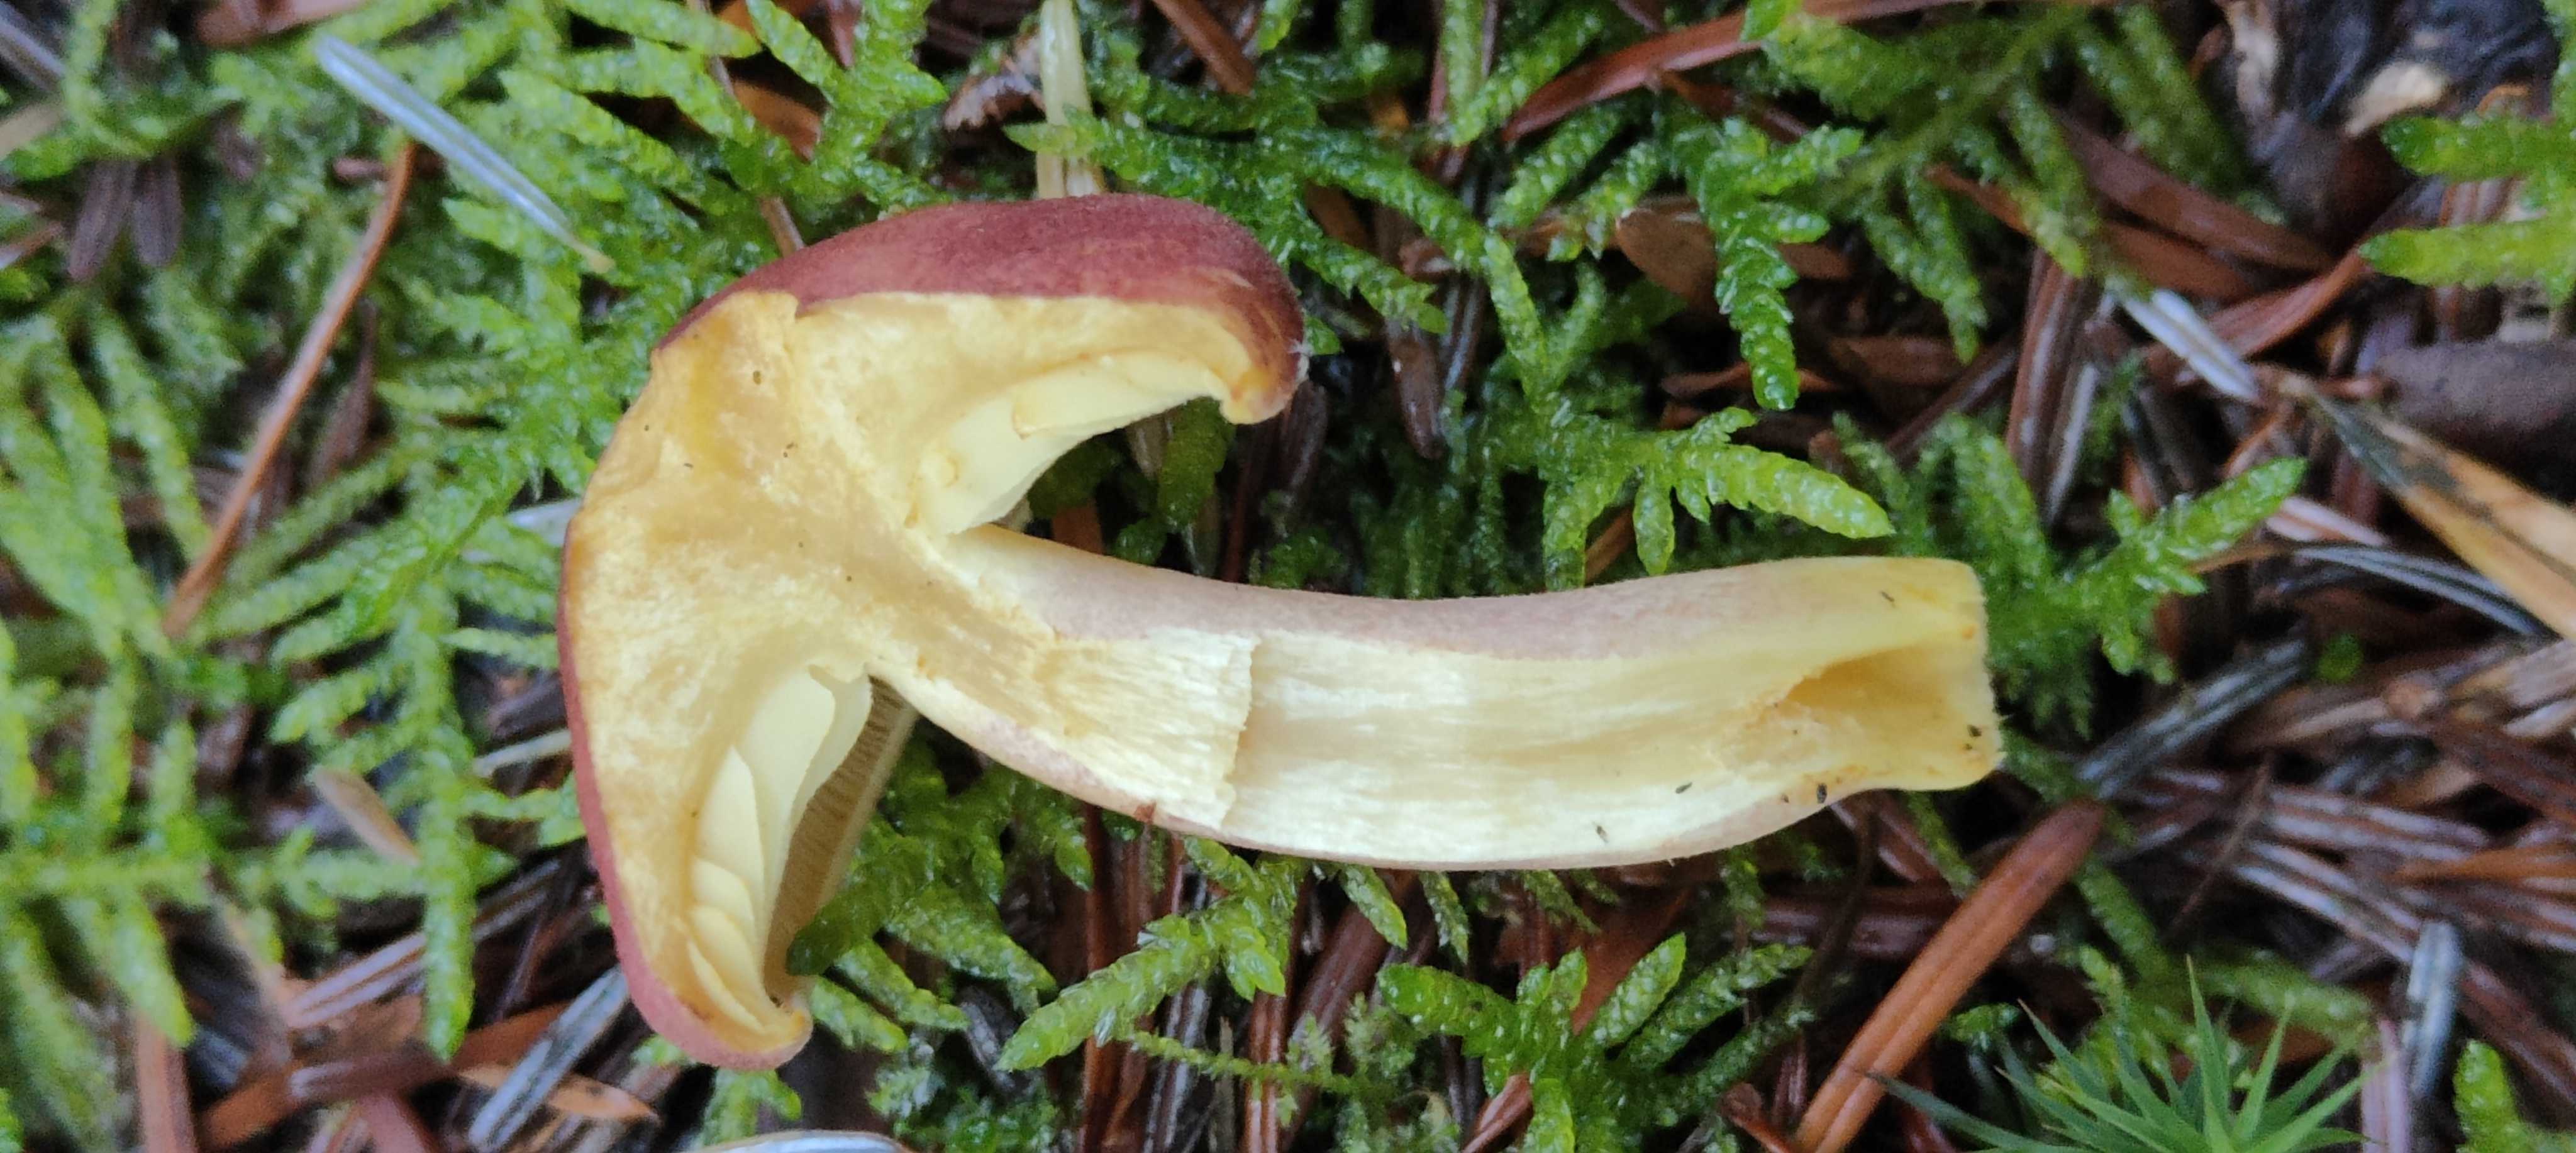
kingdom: Fungi
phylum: Basidiomycota
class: Agaricomycetes
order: Agaricales
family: Tricholomataceae
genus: Tricholomopsis
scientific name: Tricholomopsis rutilans
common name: purpur-væbnerhat
